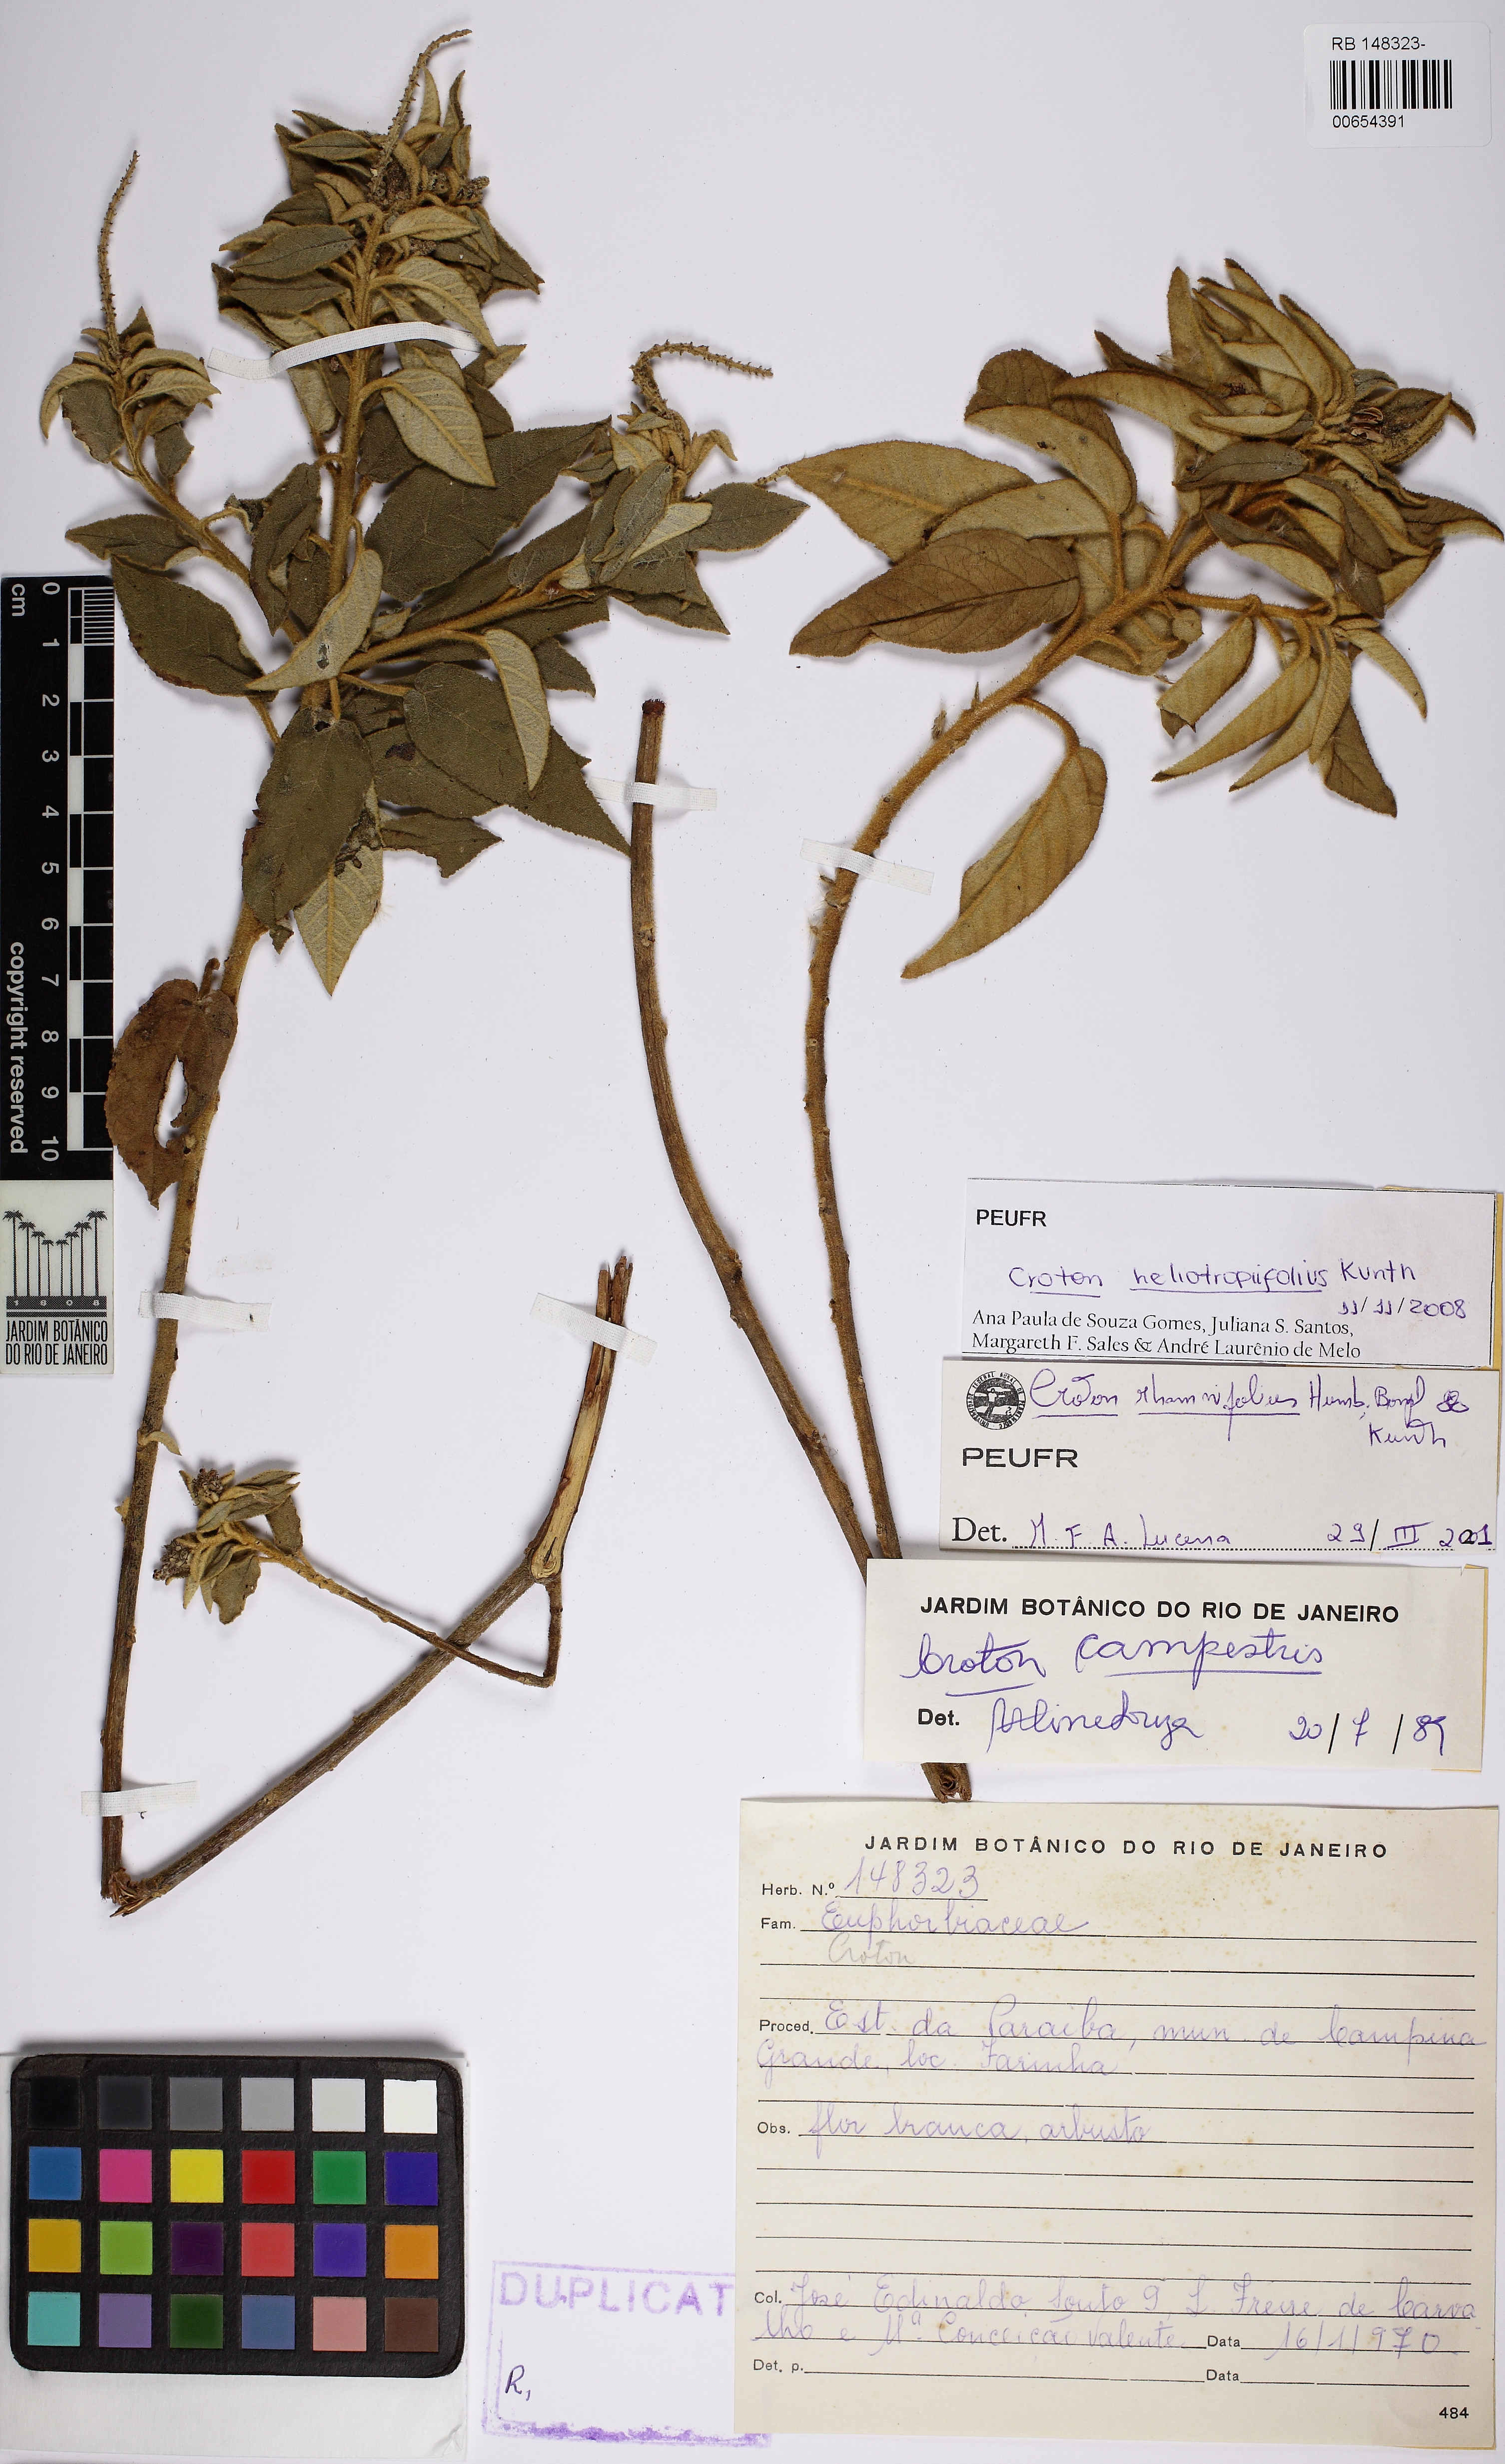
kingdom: Plantae
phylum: Tracheophyta
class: Magnoliopsida
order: Malpighiales
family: Euphorbiaceae
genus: Croton
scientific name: Croton heliotropiifolius
